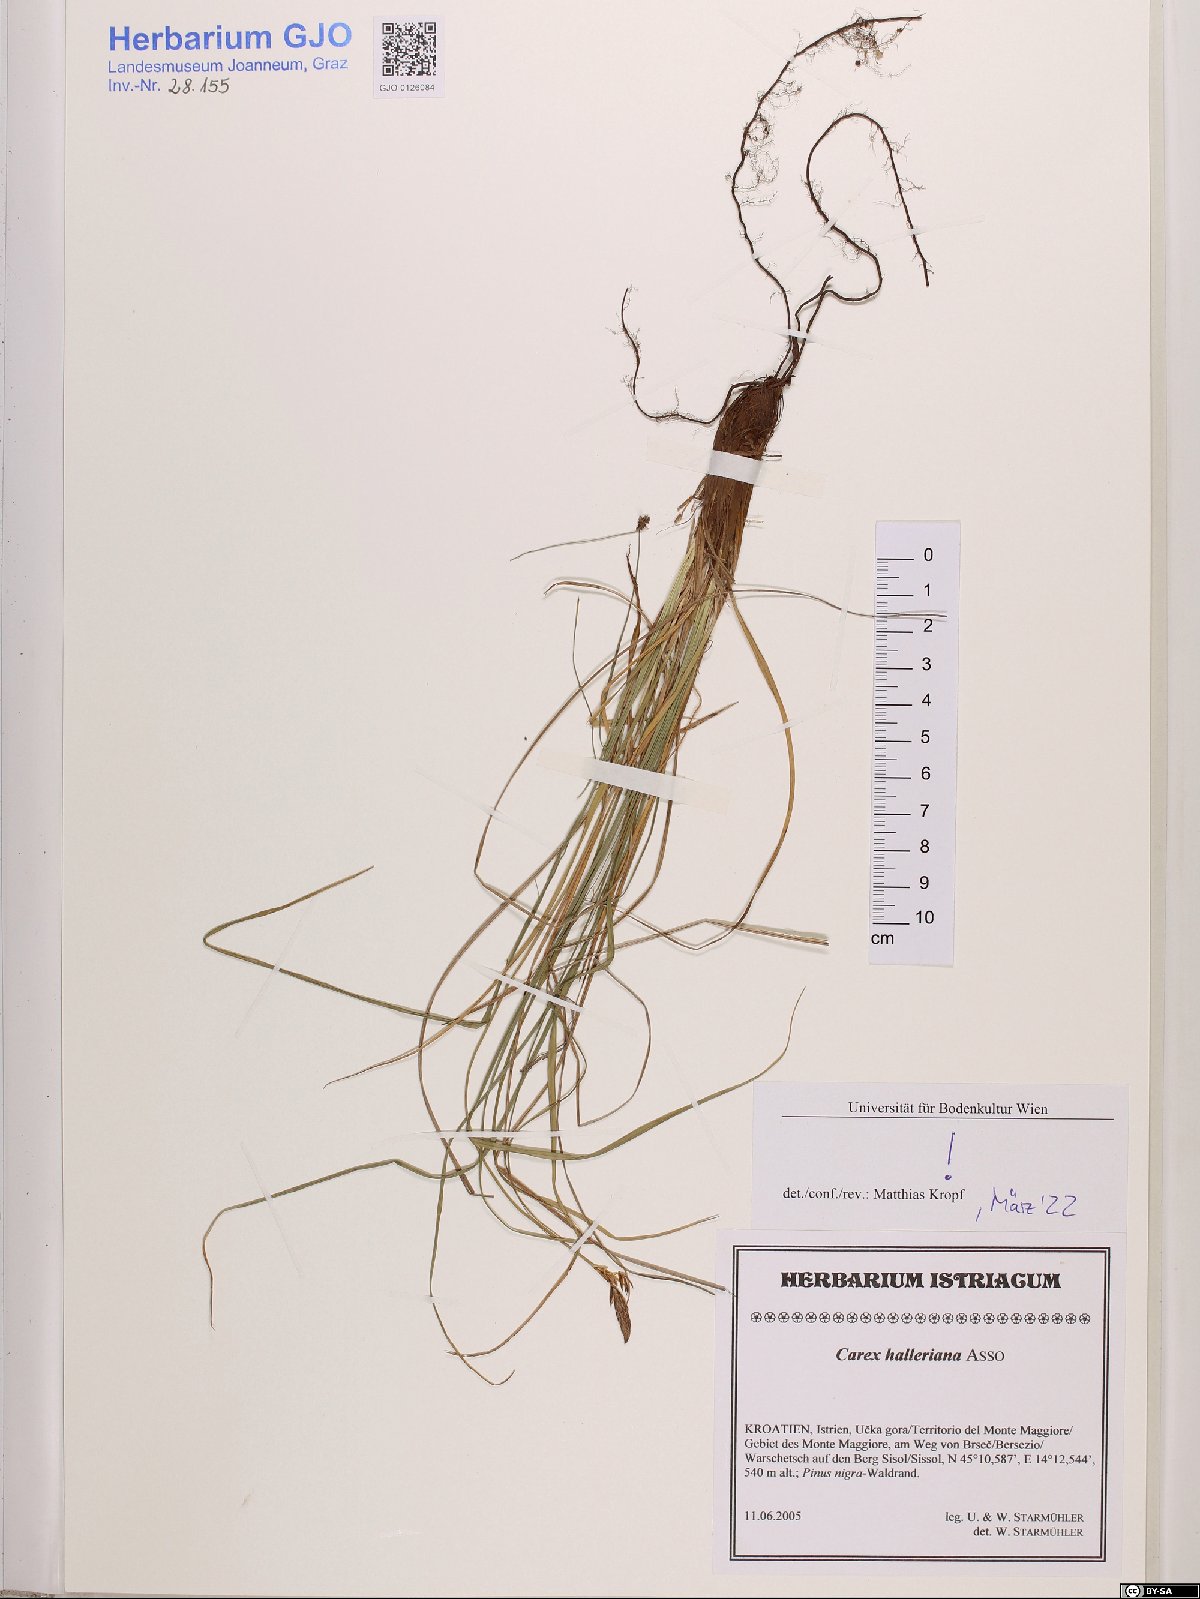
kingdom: Plantae
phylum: Tracheophyta
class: Liliopsida
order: Poales
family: Cyperaceae
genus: Carex
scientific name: Carex halleriana
